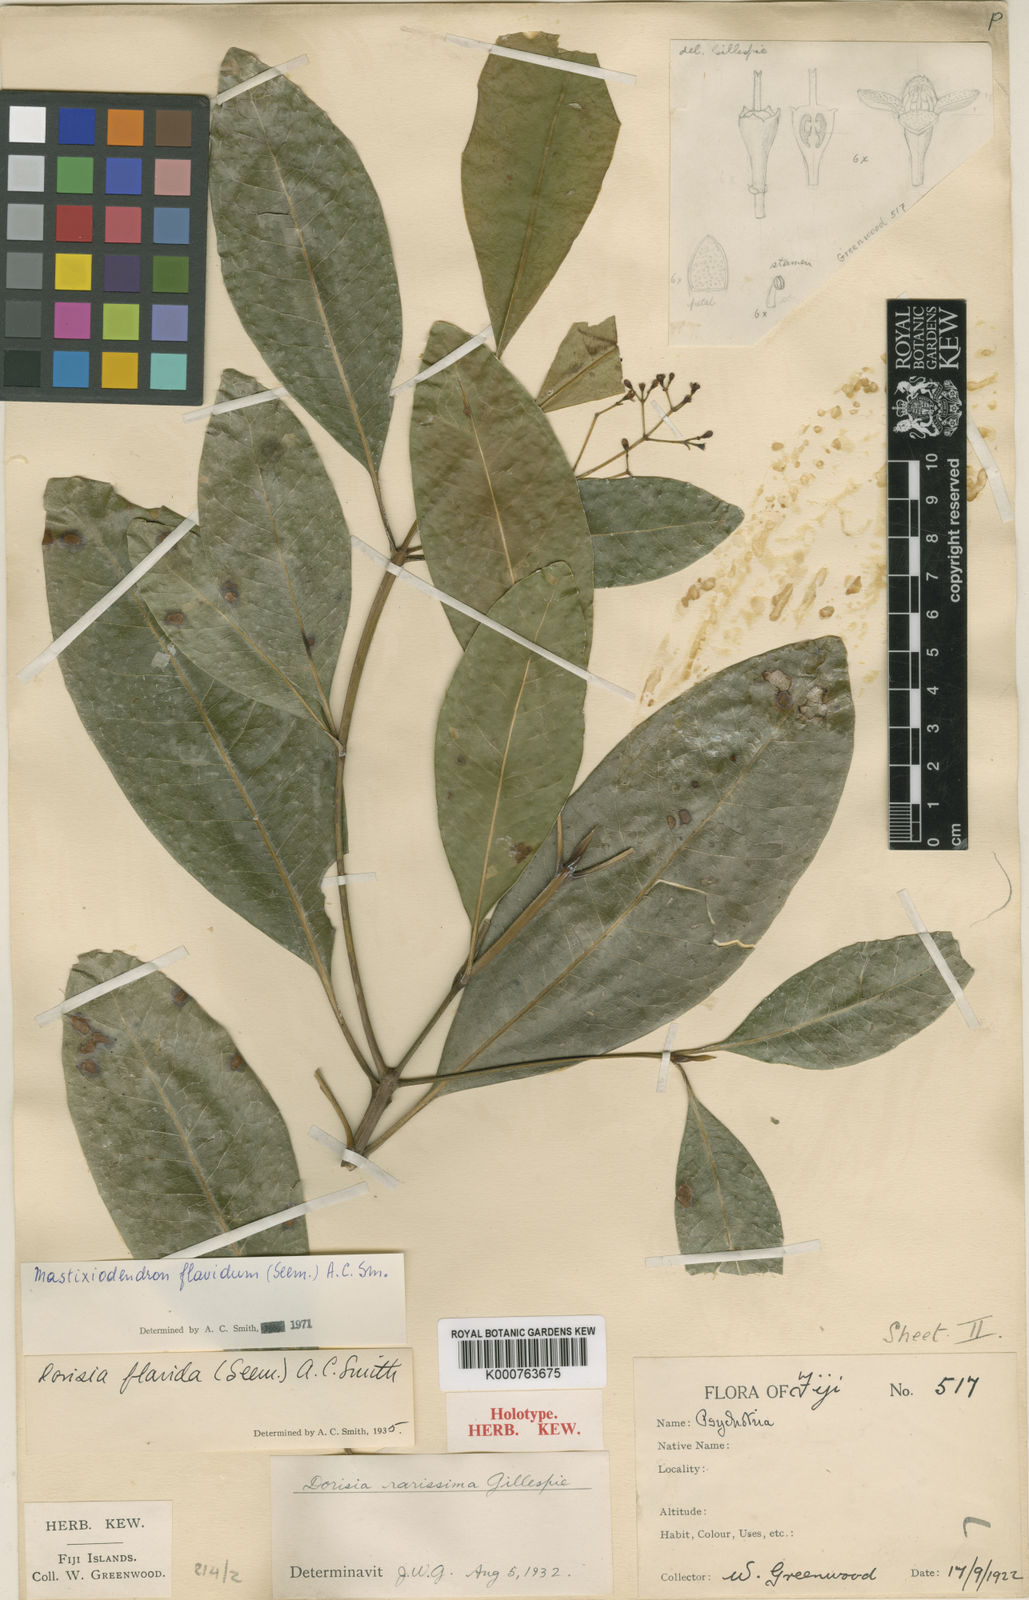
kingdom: Plantae
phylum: Tracheophyta
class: Magnoliopsida
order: Gentianales
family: Rubiaceae
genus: Mastixiodendron
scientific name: Mastixiodendron flavidum
